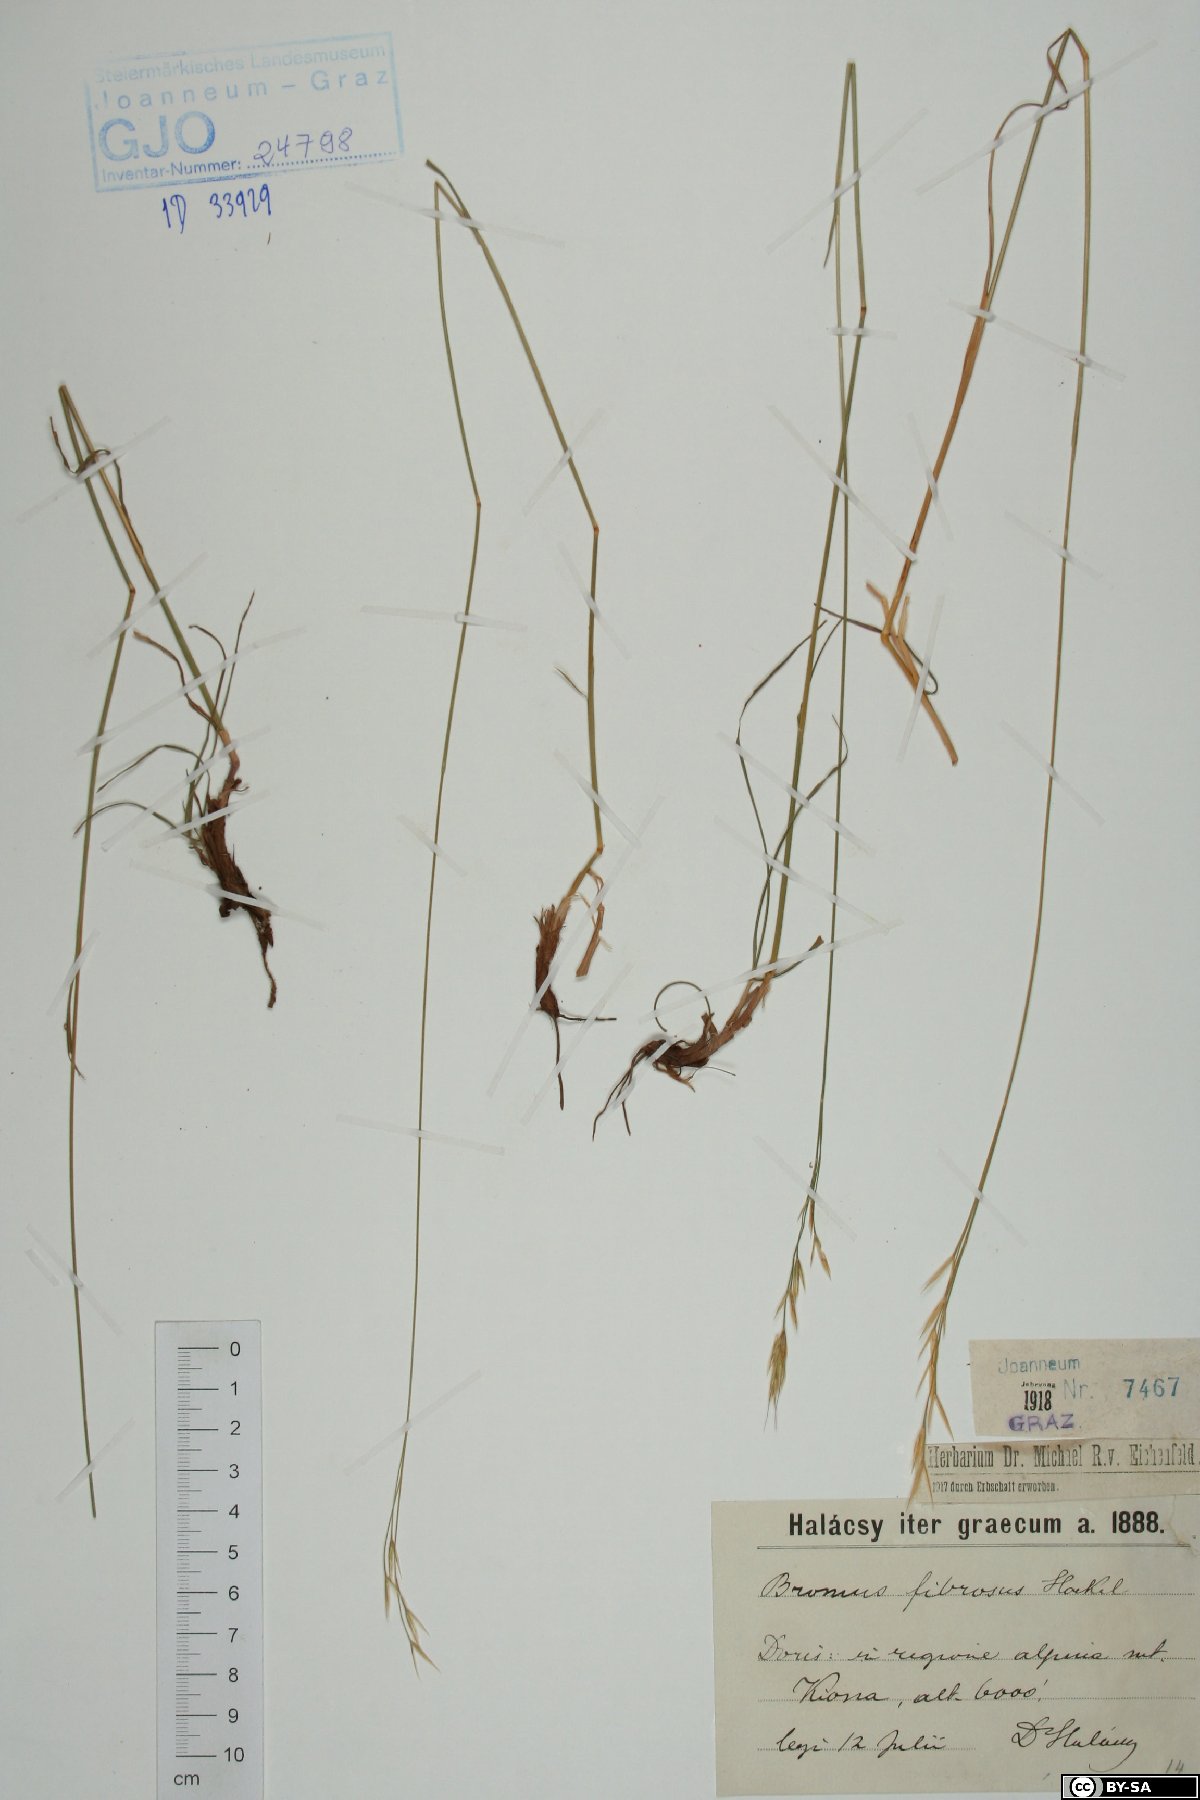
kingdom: Plantae
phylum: Tracheophyta
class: Liliopsida
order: Poales
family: Poaceae
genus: Bromus
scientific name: Bromus riparius
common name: Meadow brome
